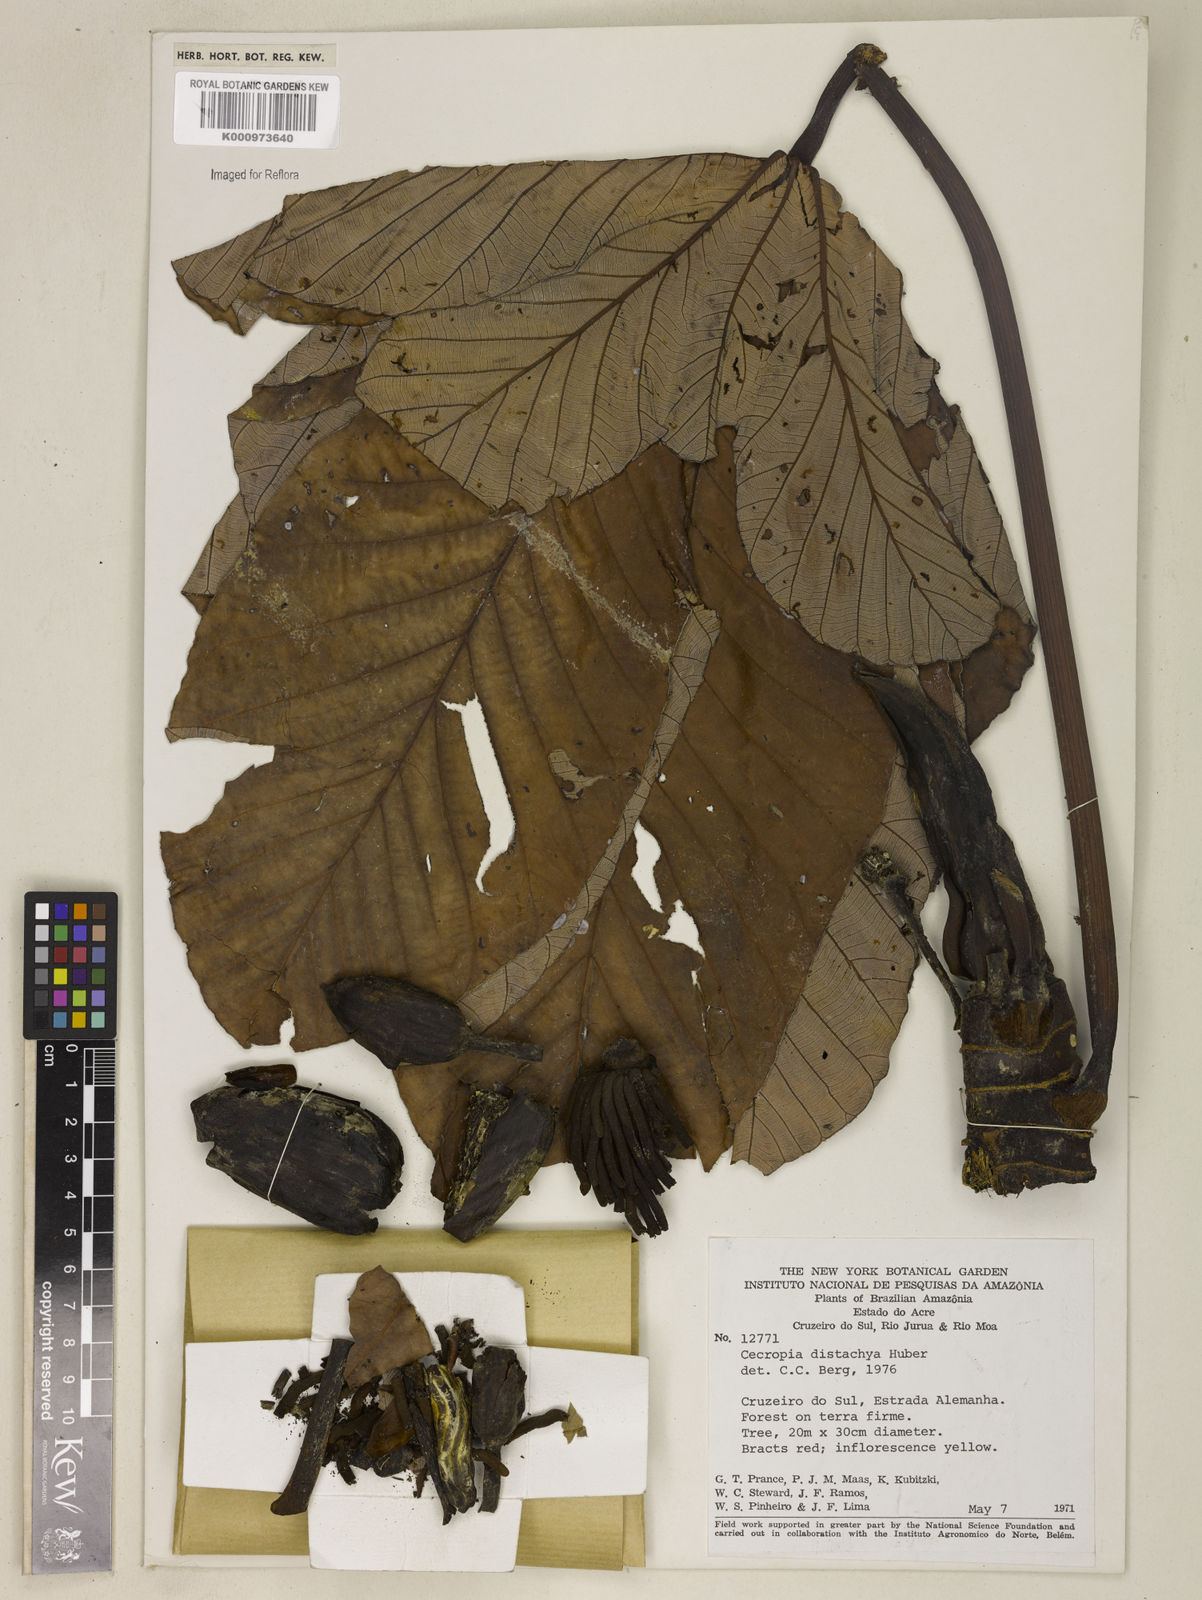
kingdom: Plantae
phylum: Tracheophyta
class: Magnoliopsida
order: Rosales
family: Urticaceae
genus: Cecropia
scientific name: Cecropia distachya
